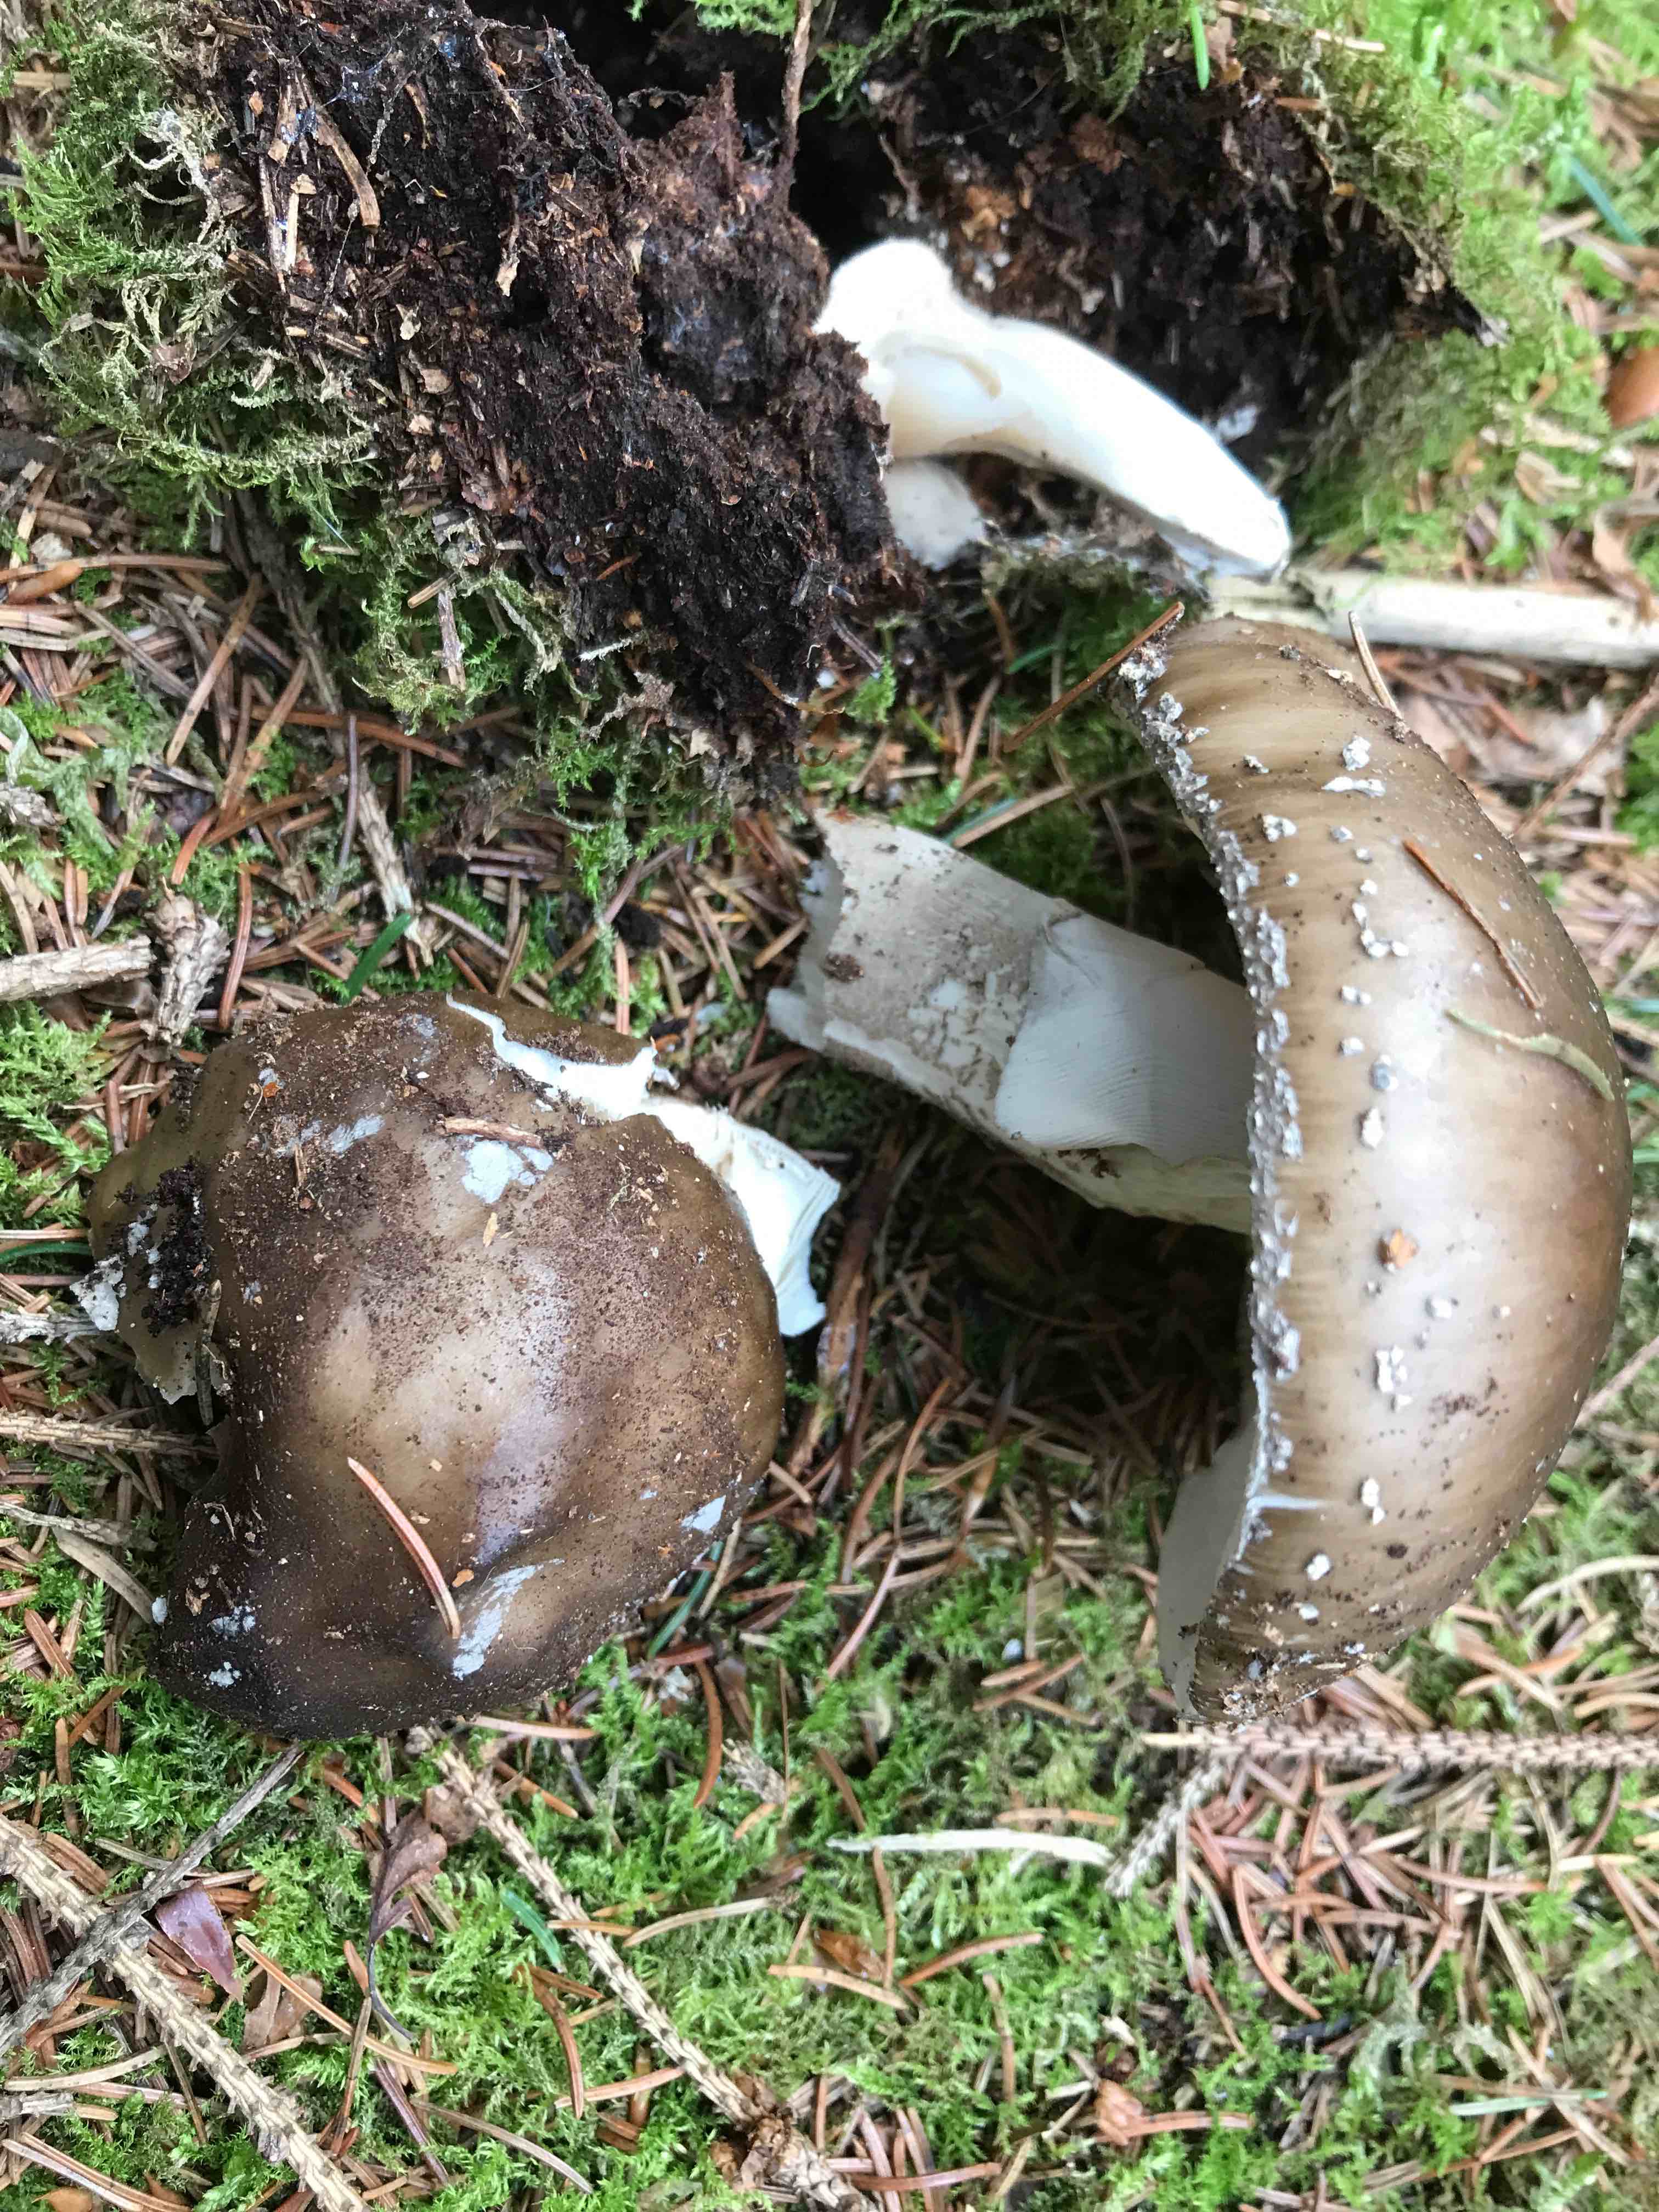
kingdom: Fungi
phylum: Basidiomycota
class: Agaricomycetes
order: Agaricales
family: Amanitaceae
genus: Amanita
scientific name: Amanita
